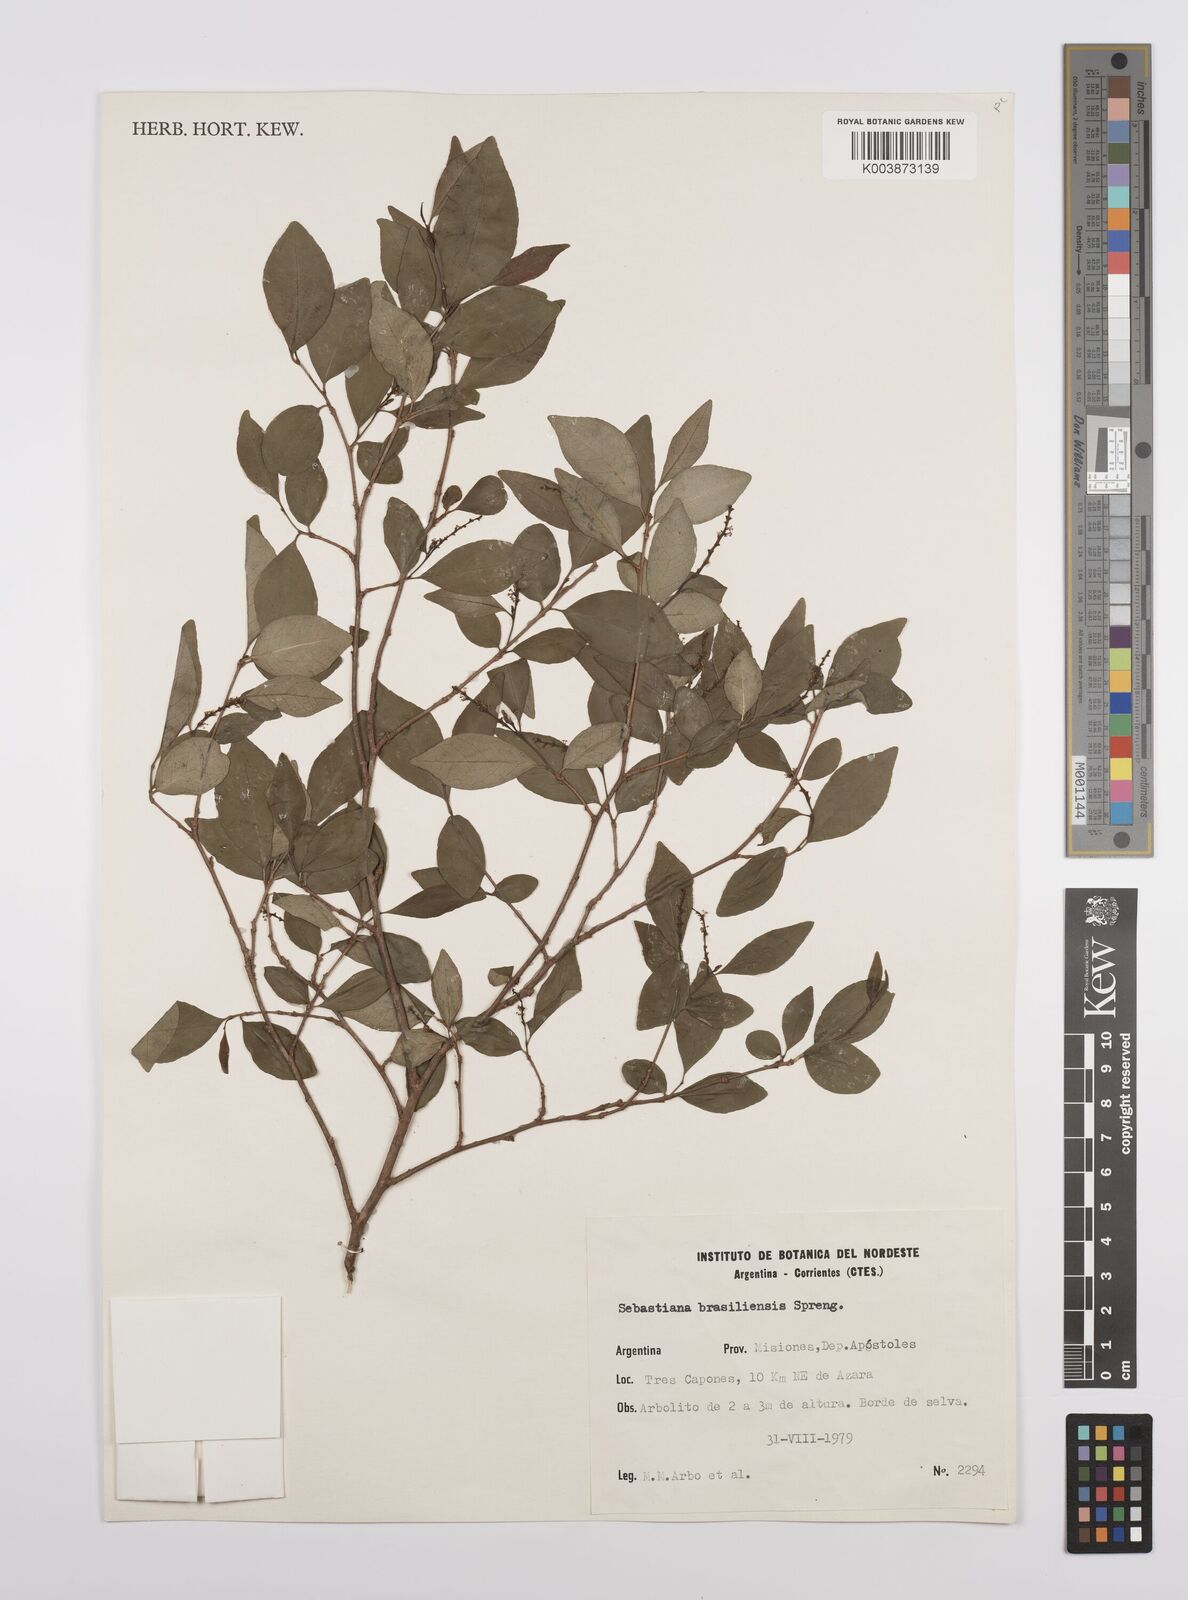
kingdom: Plantae
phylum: Tracheophyta
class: Magnoliopsida
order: Malpighiales
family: Euphorbiaceae
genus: Sebastiania
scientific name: Sebastiania brasiliensis
